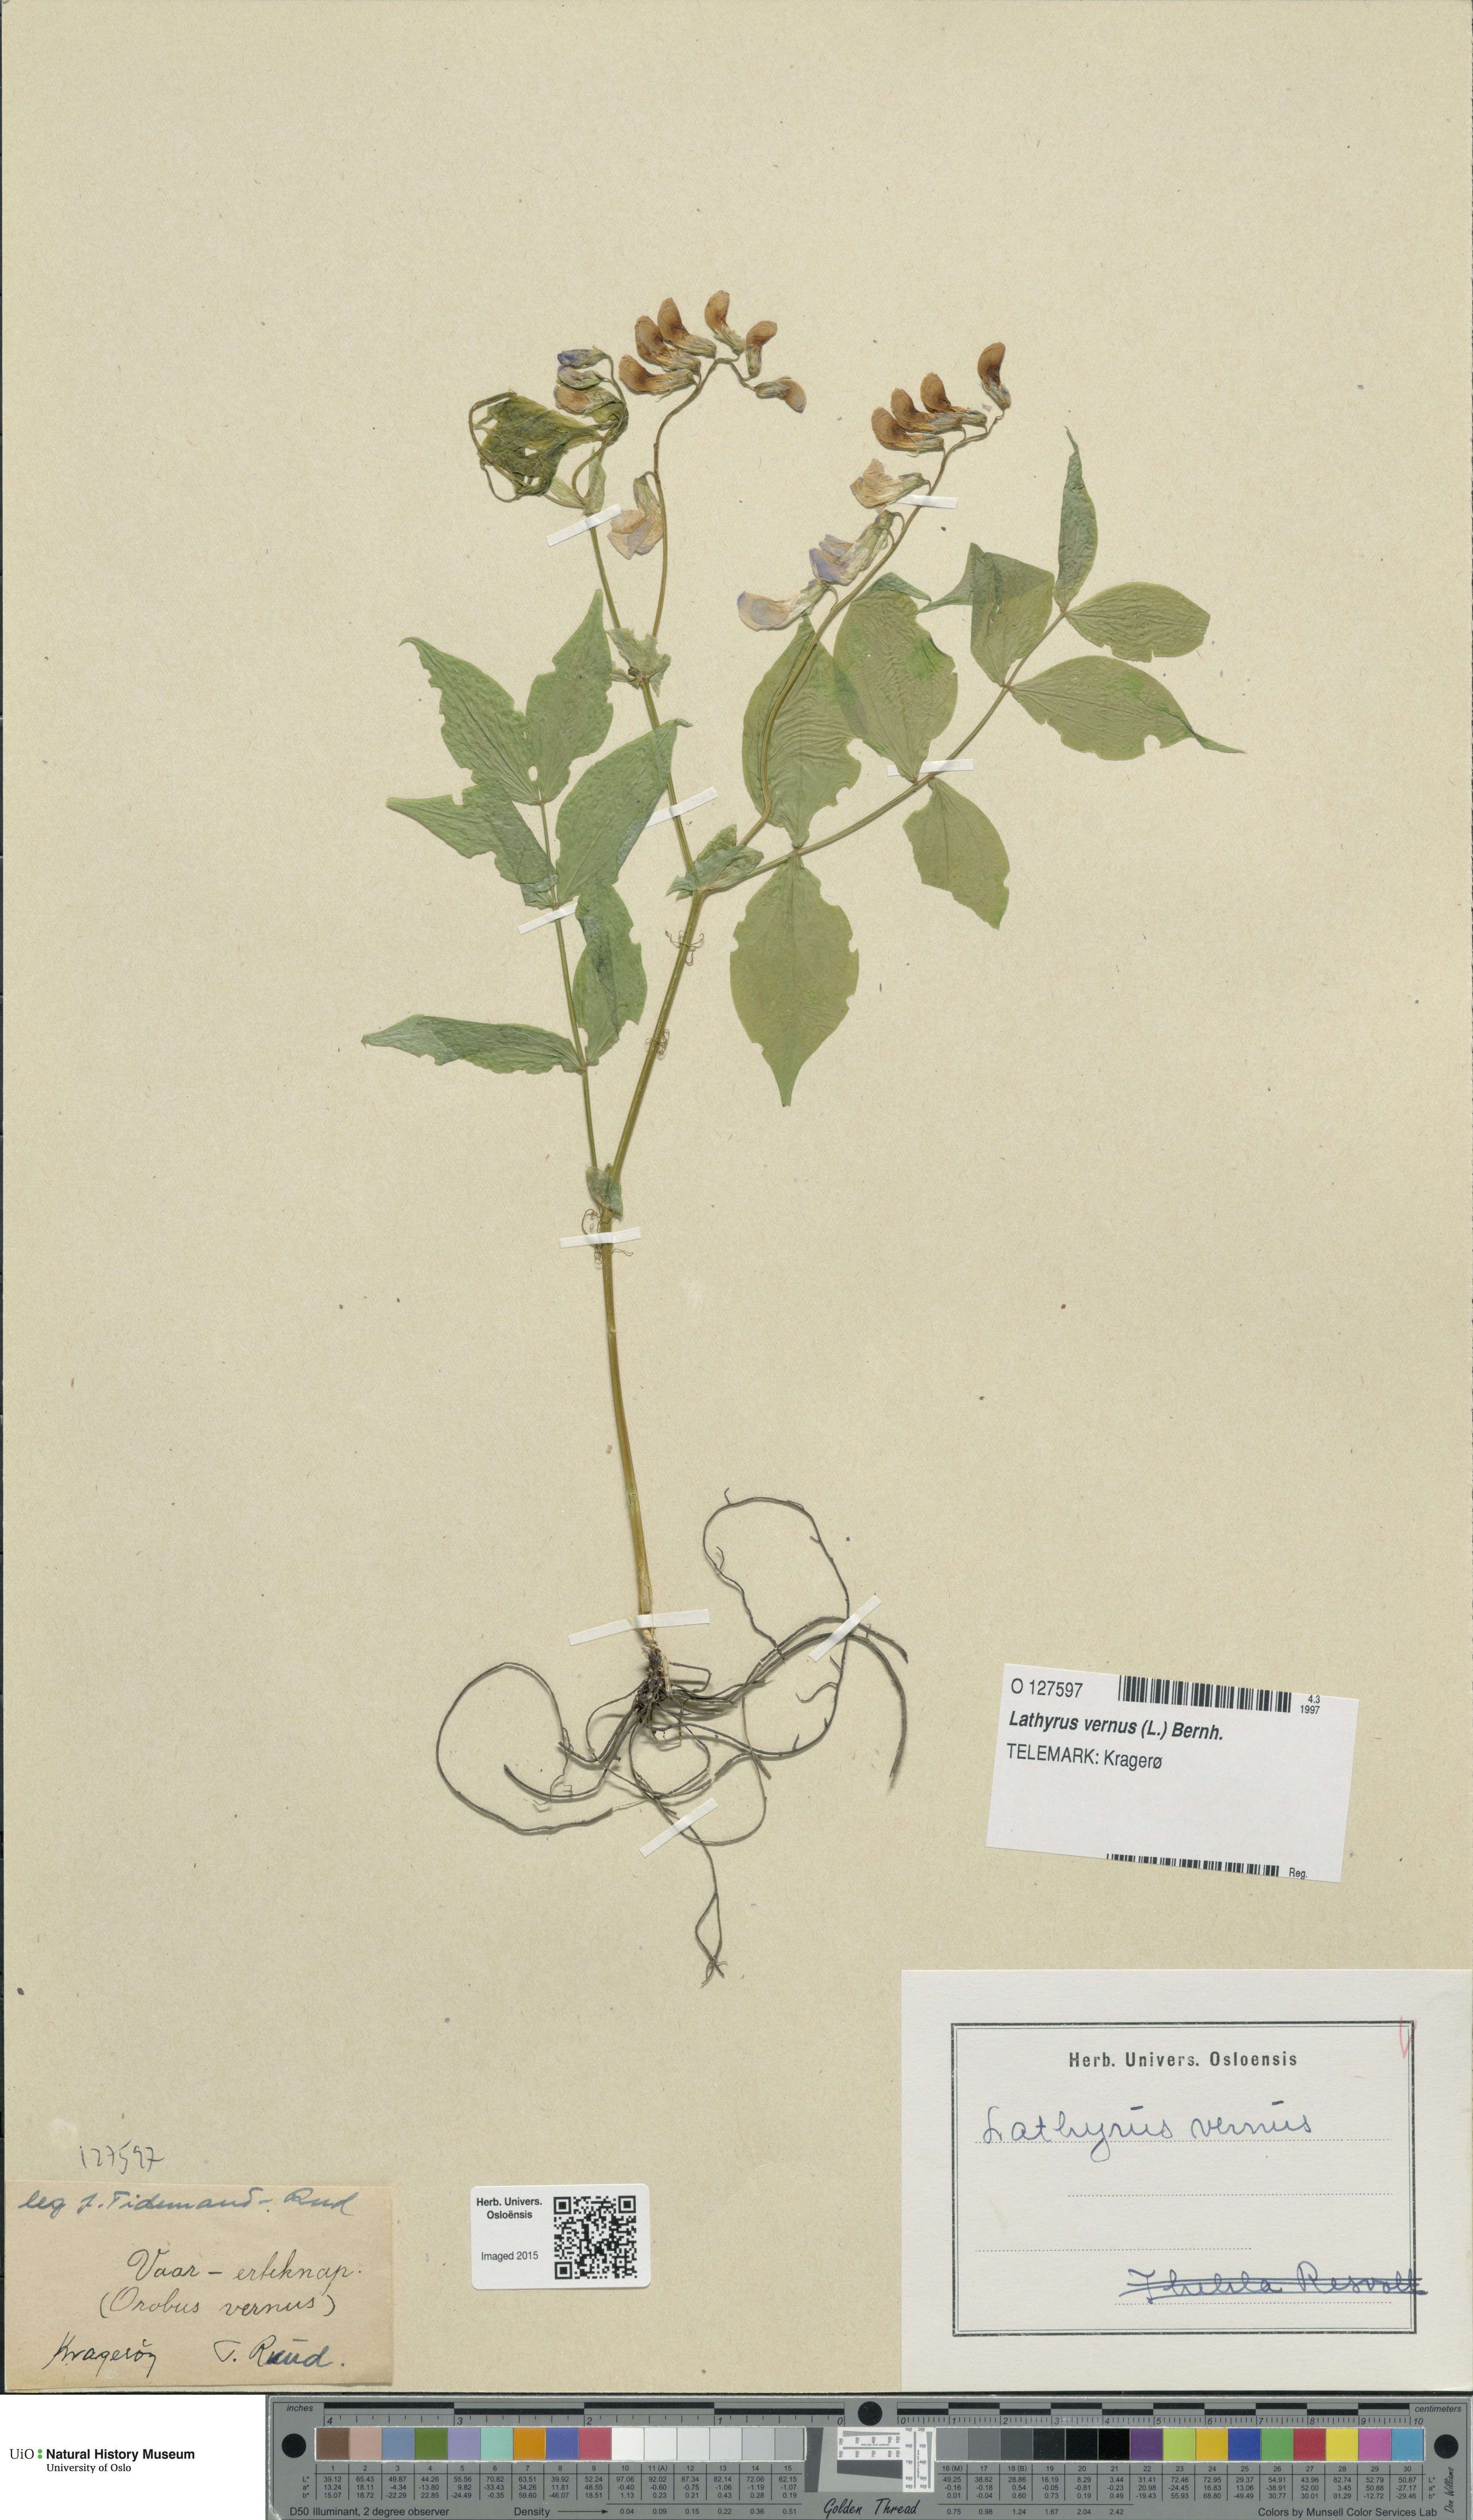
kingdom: Plantae
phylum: Tracheophyta
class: Magnoliopsida
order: Fabales
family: Fabaceae
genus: Lathyrus
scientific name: Lathyrus vernus
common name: Spring pea
